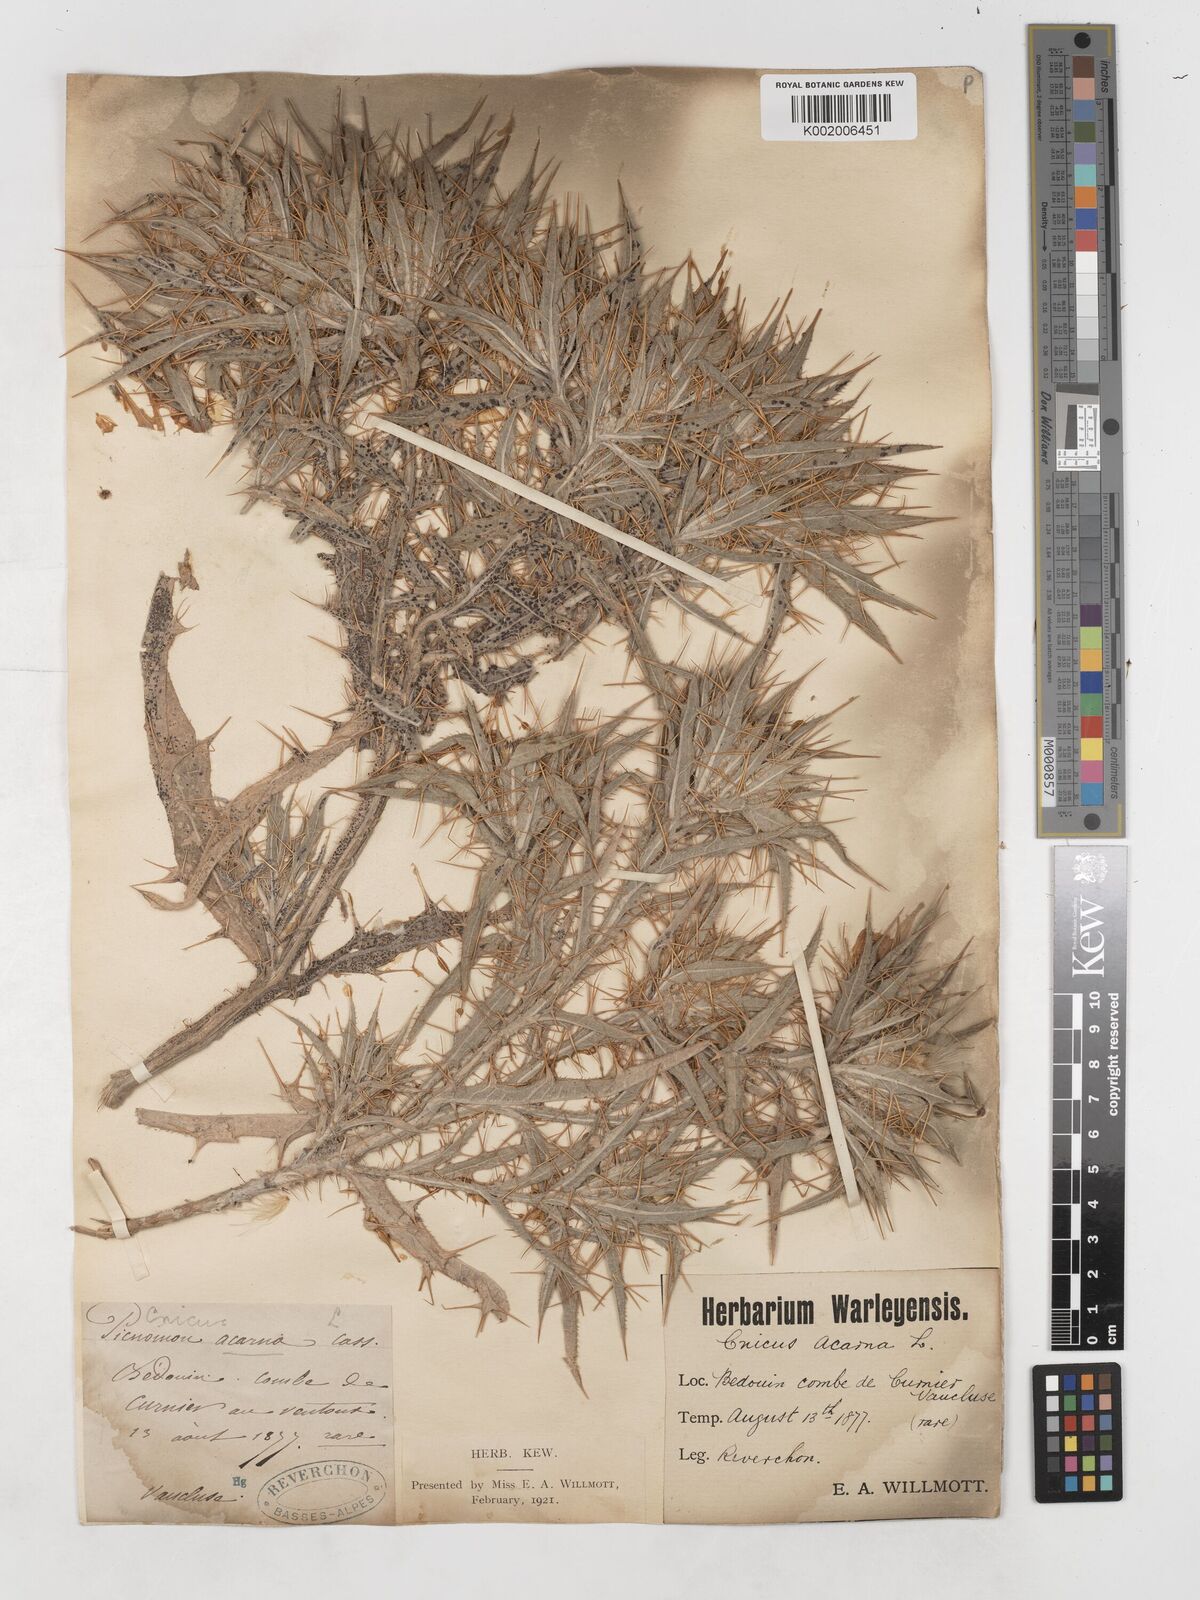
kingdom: Plantae
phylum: Tracheophyta
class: Magnoliopsida
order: Asterales
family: Asteraceae
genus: Picnomon
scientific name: Picnomon acarna
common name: Soldier thistle
